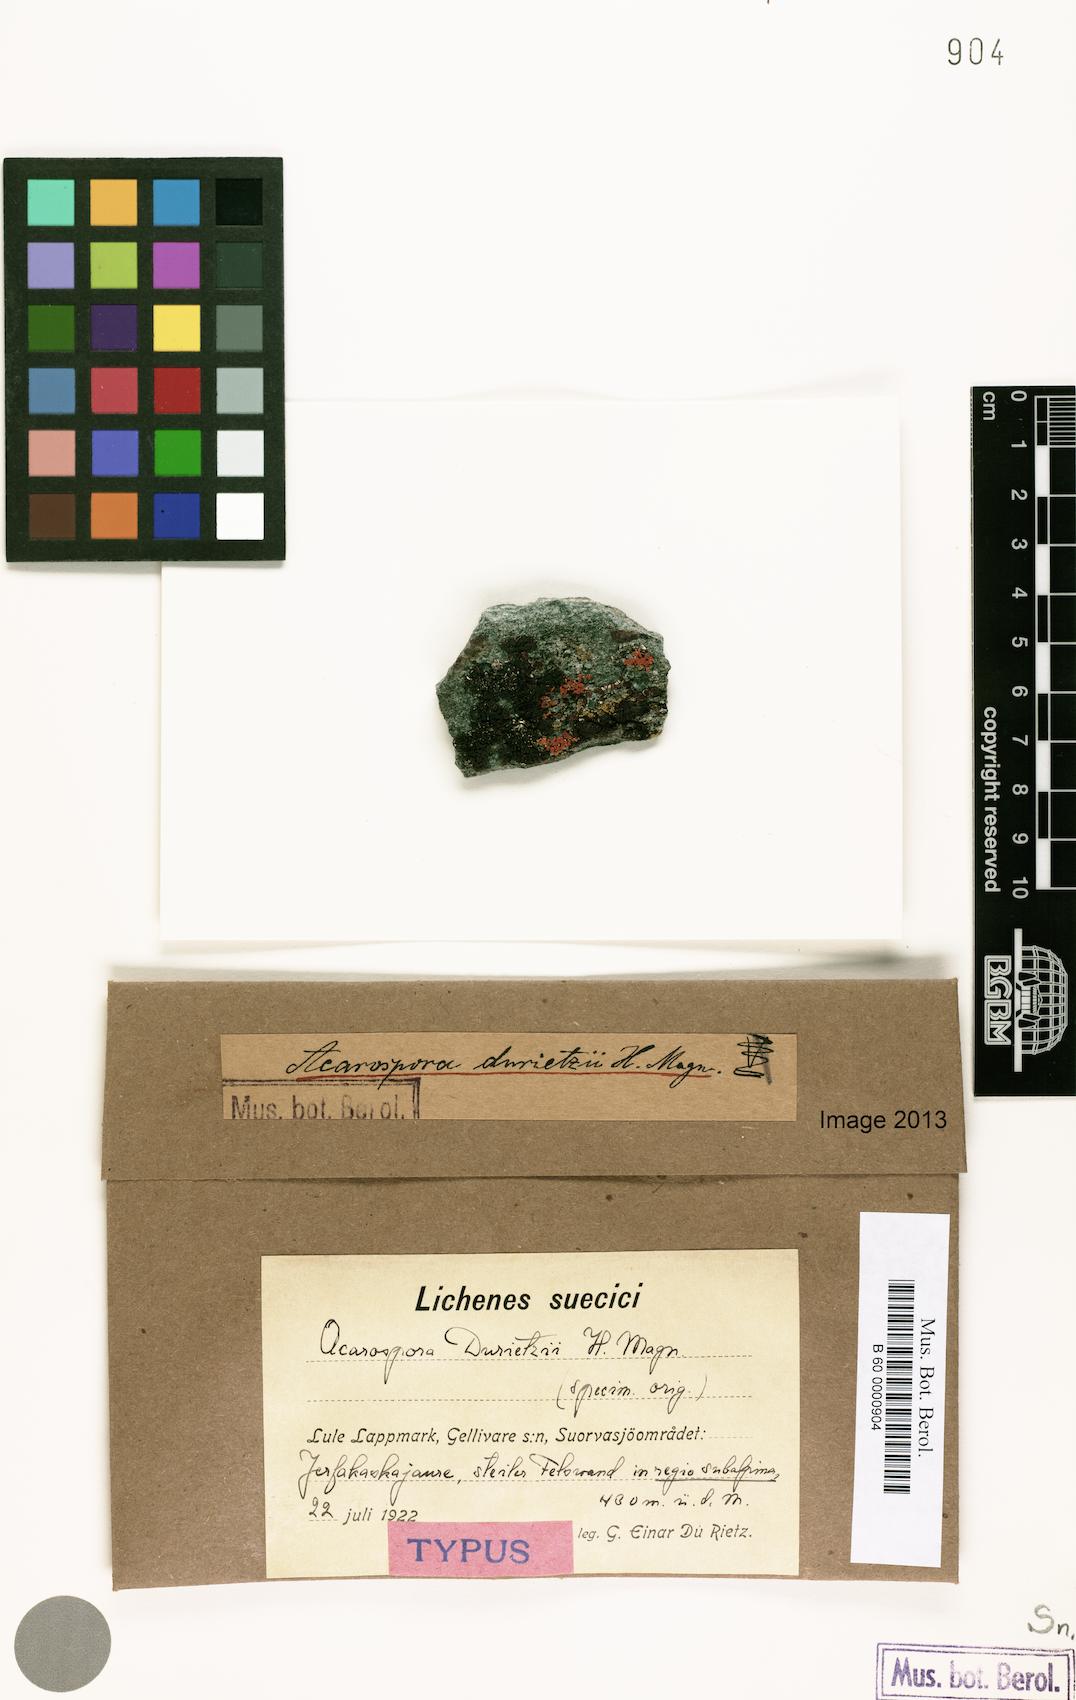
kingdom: Fungi
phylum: Ascomycota
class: Lecanoromycetes
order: Acarosporales
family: Acarosporaceae
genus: Acarospora
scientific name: Acarospora durietzii
